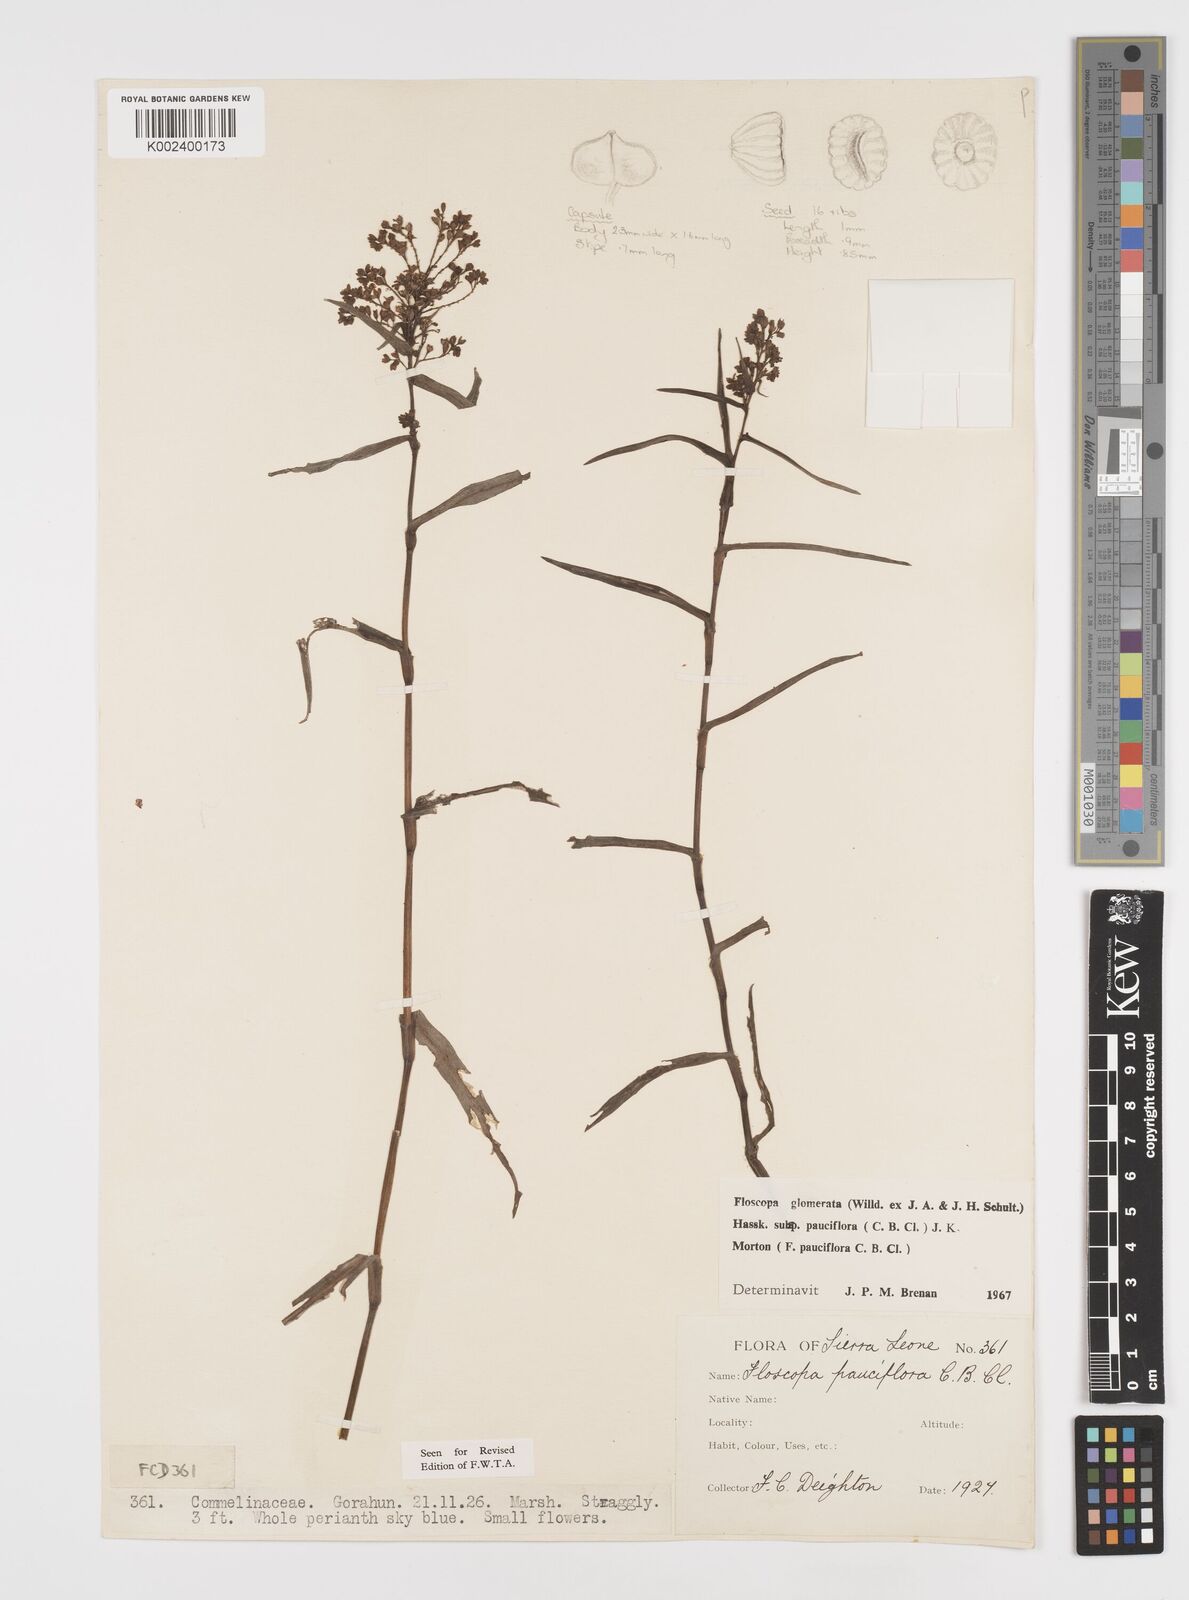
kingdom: Plantae
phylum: Tracheophyta
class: Liliopsida
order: Commelinales
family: Commelinaceae
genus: Floscopa
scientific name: Floscopa glomerata
